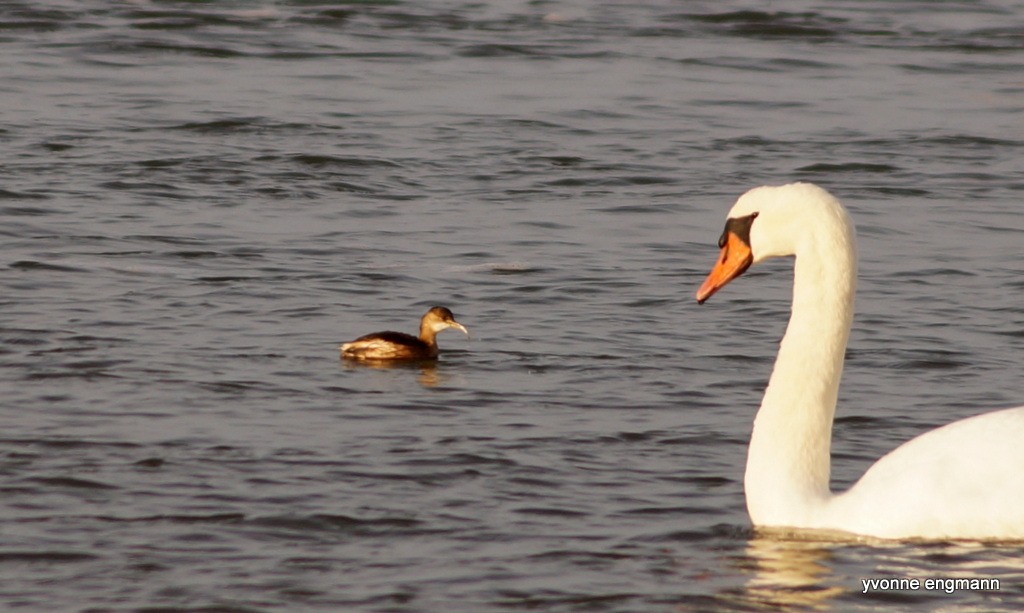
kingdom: Animalia
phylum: Chordata
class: Aves
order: Podicipediformes
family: Podicipedidae
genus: Tachybaptus
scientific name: Tachybaptus ruficollis
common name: Lille lappedykker
